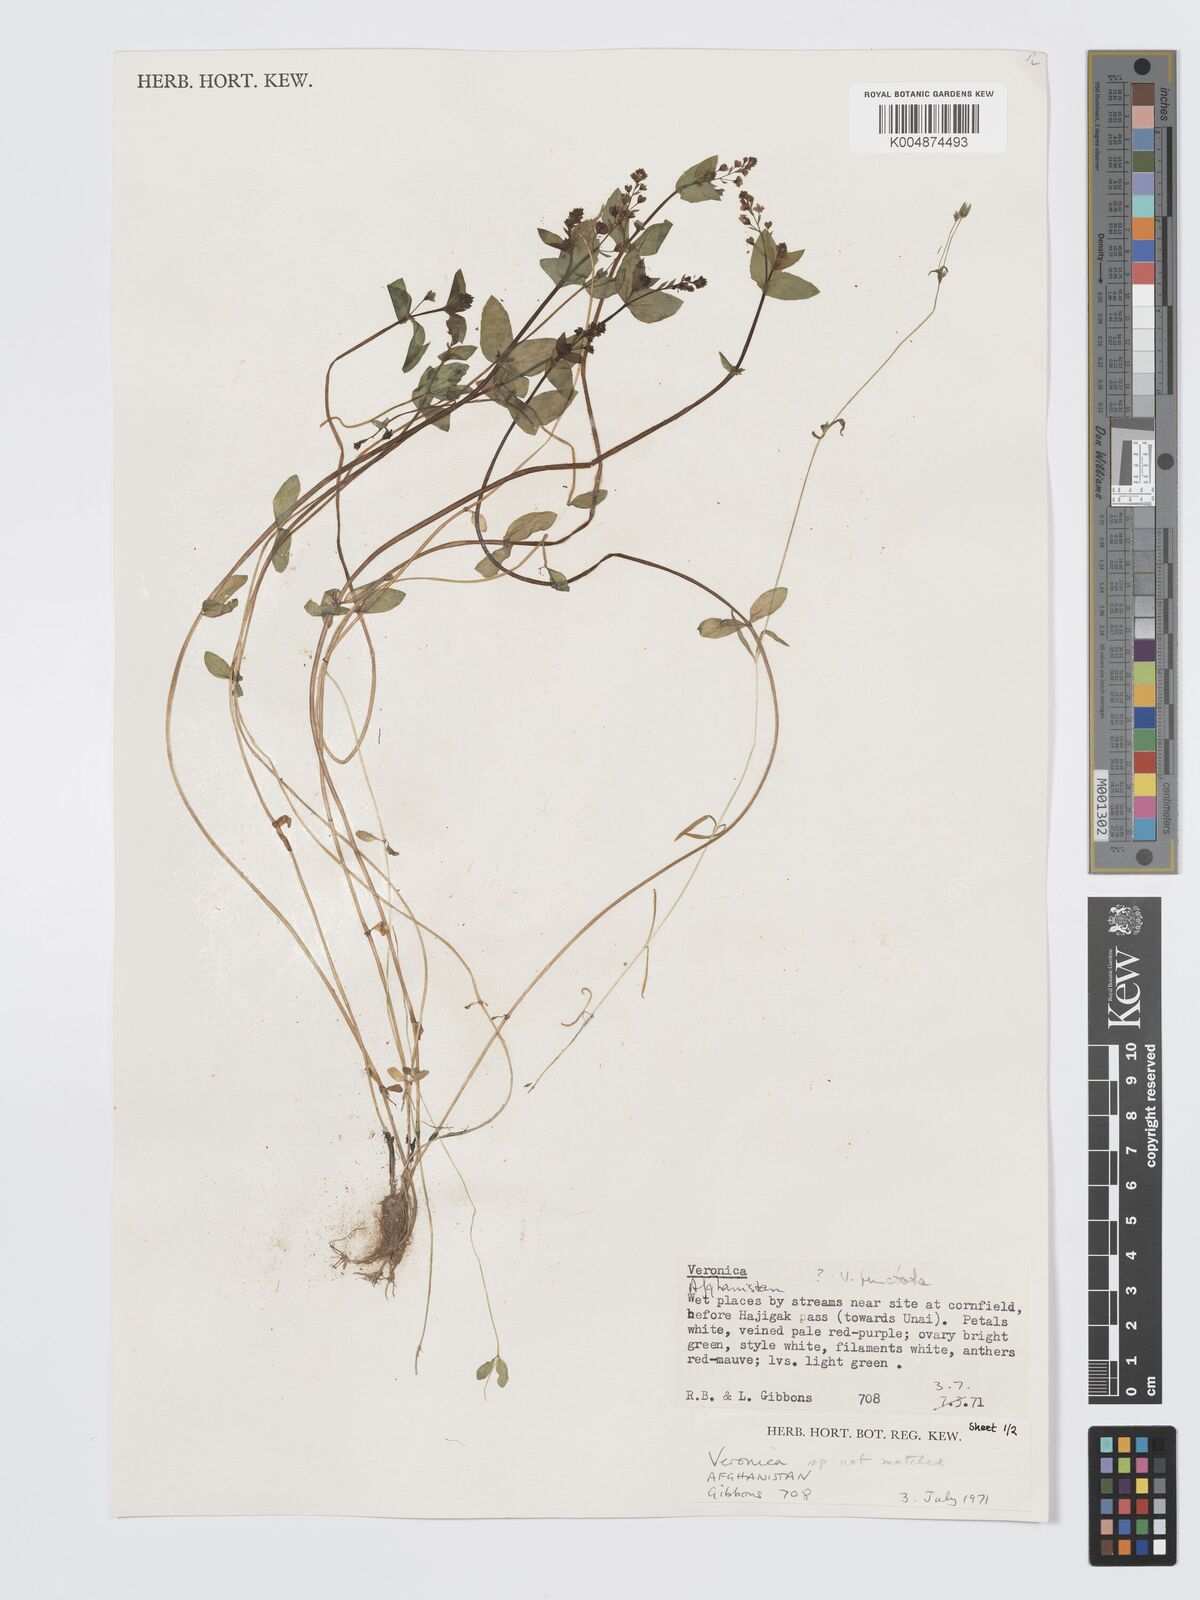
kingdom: Plantae
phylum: Tracheophyta
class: Magnoliopsida
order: Lamiales
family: Plantaginaceae
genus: Veronica
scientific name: Veronica oxycarpa
